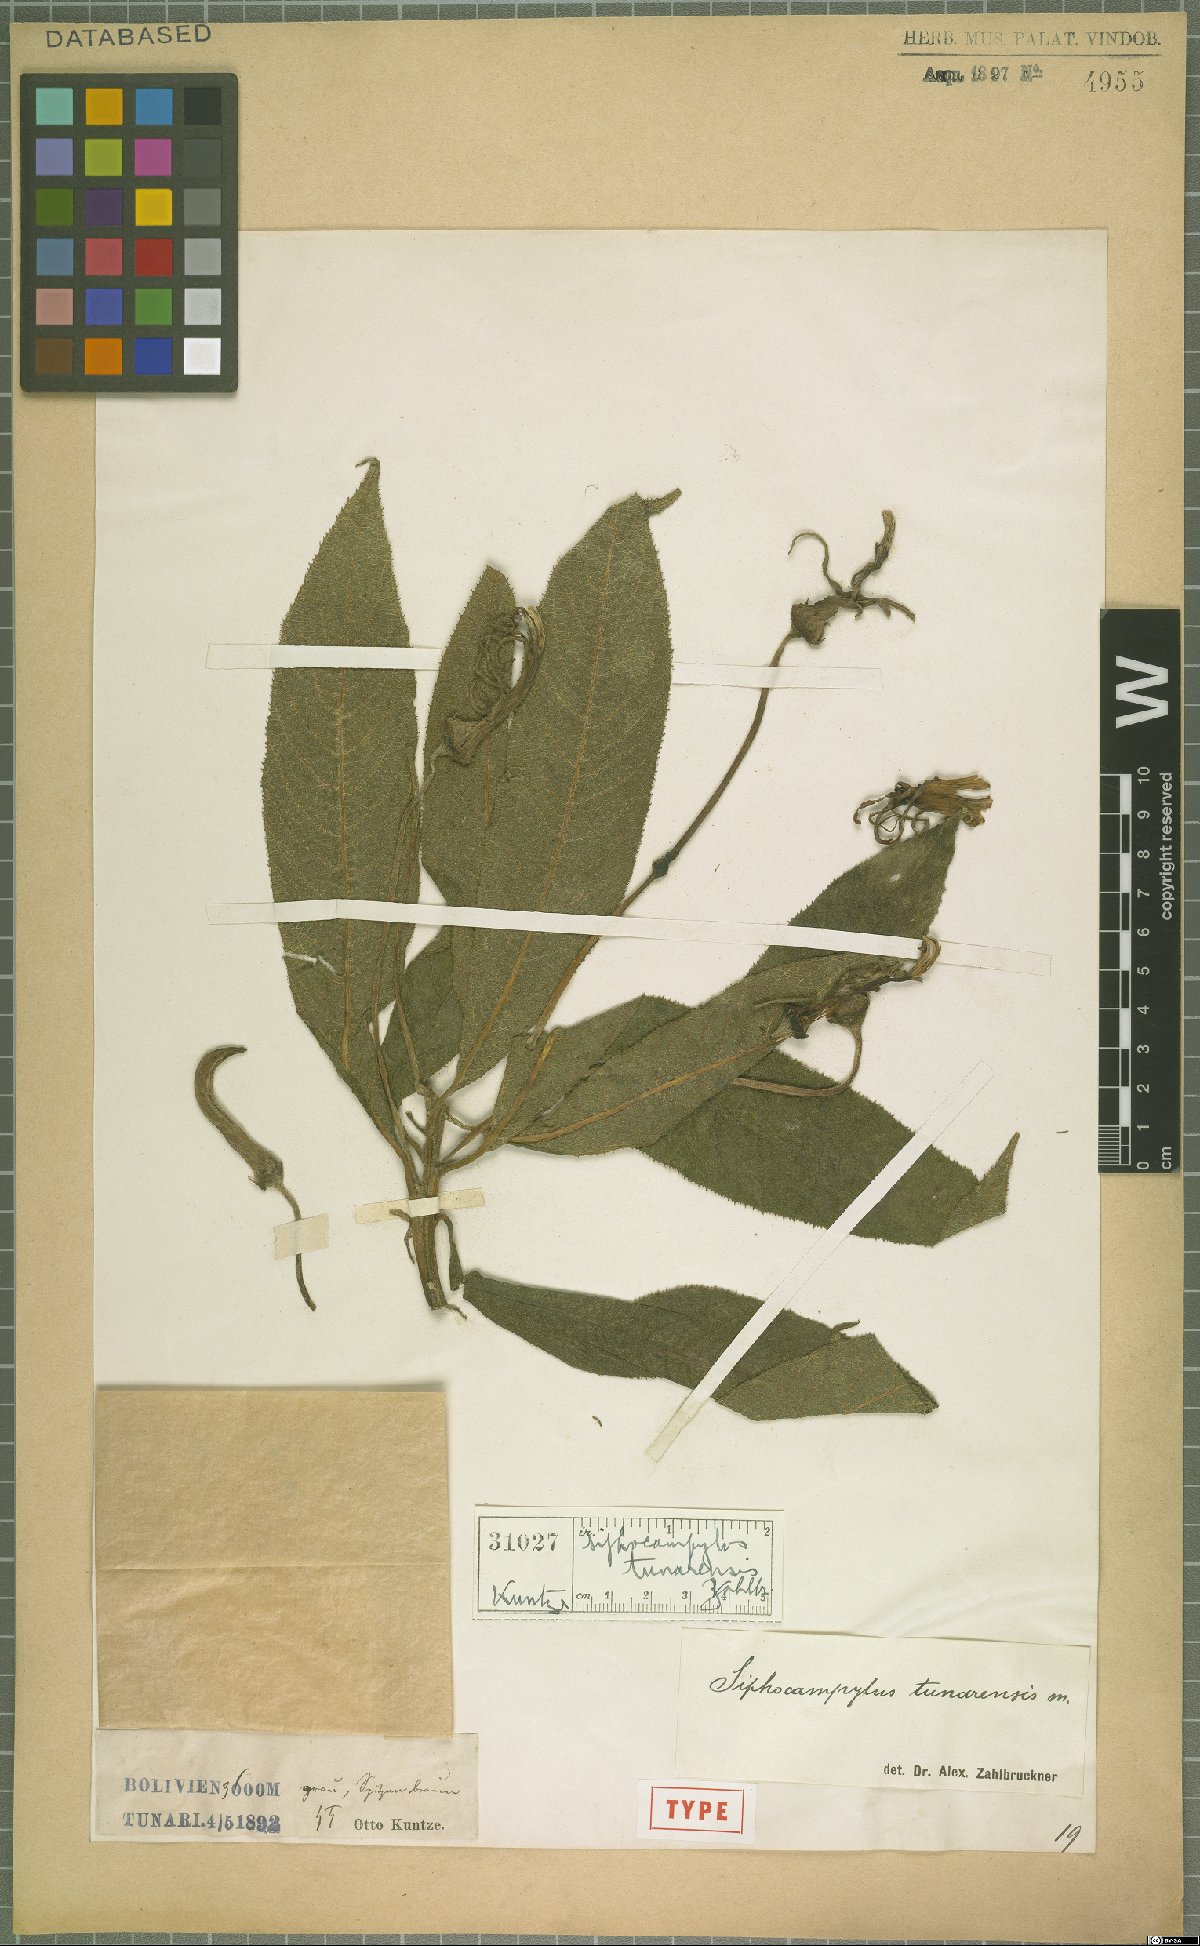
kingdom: Plantae
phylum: Tracheophyta
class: Magnoliopsida
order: Asterales
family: Campanulaceae
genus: Siphocampylus
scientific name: Siphocampylus tunarensis
